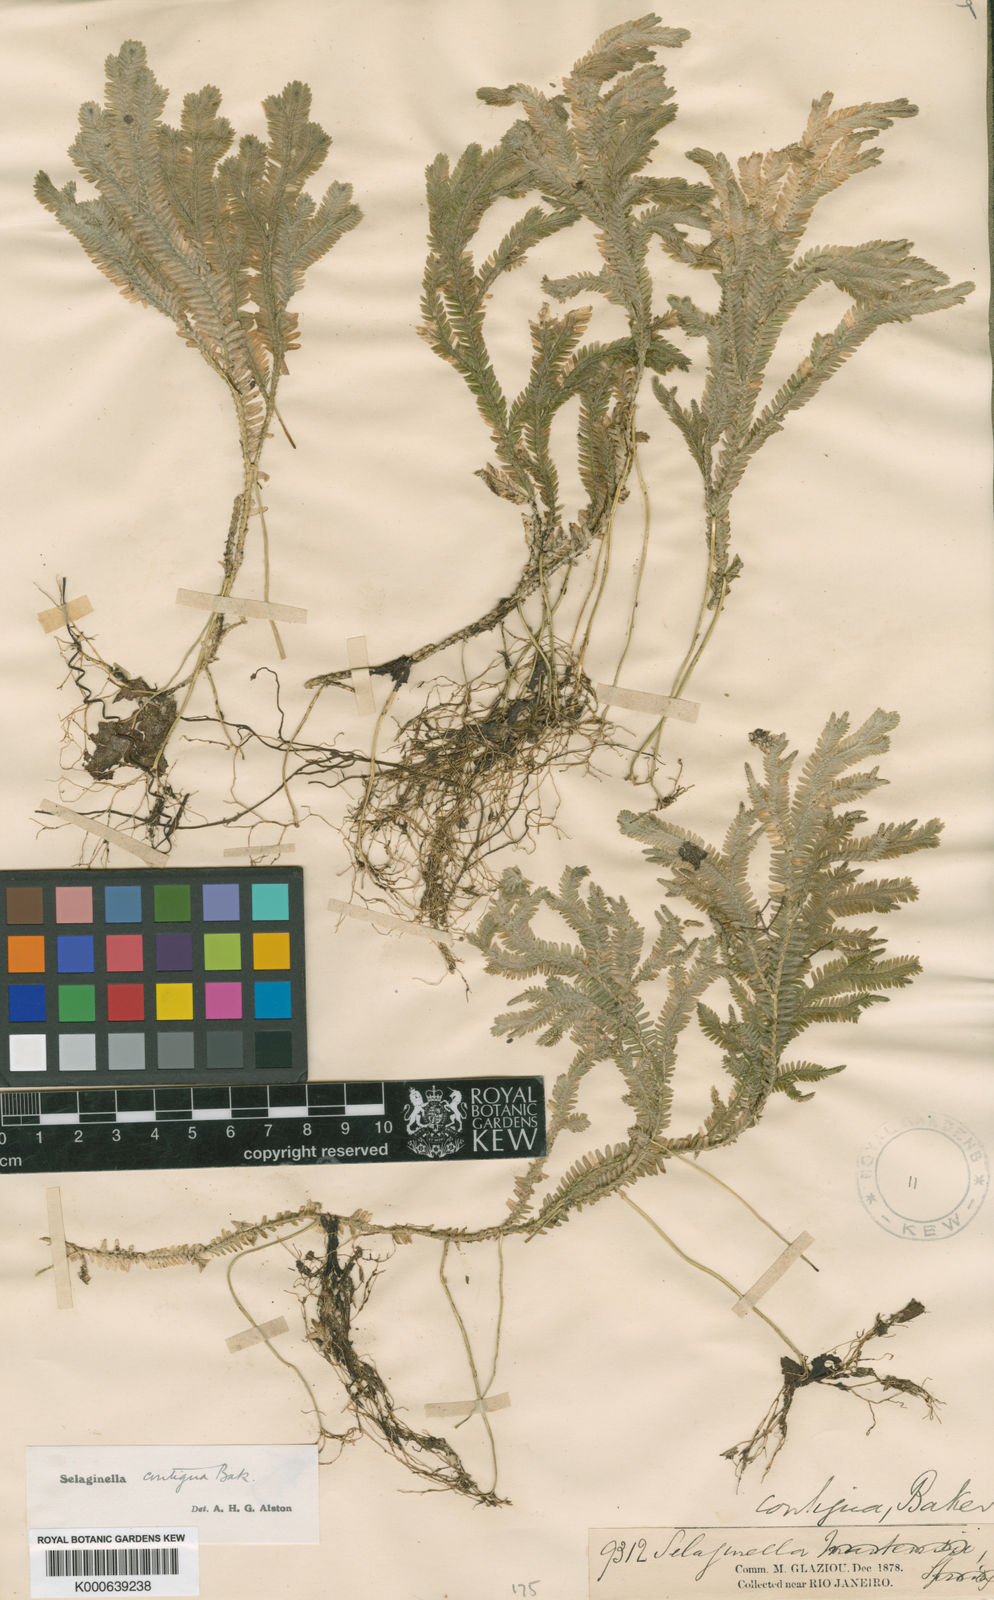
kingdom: Plantae
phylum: Tracheophyta
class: Lycopodiopsida
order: Selaginellales
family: Selaginellaceae
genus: Selaginella
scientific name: Selaginella contigua
